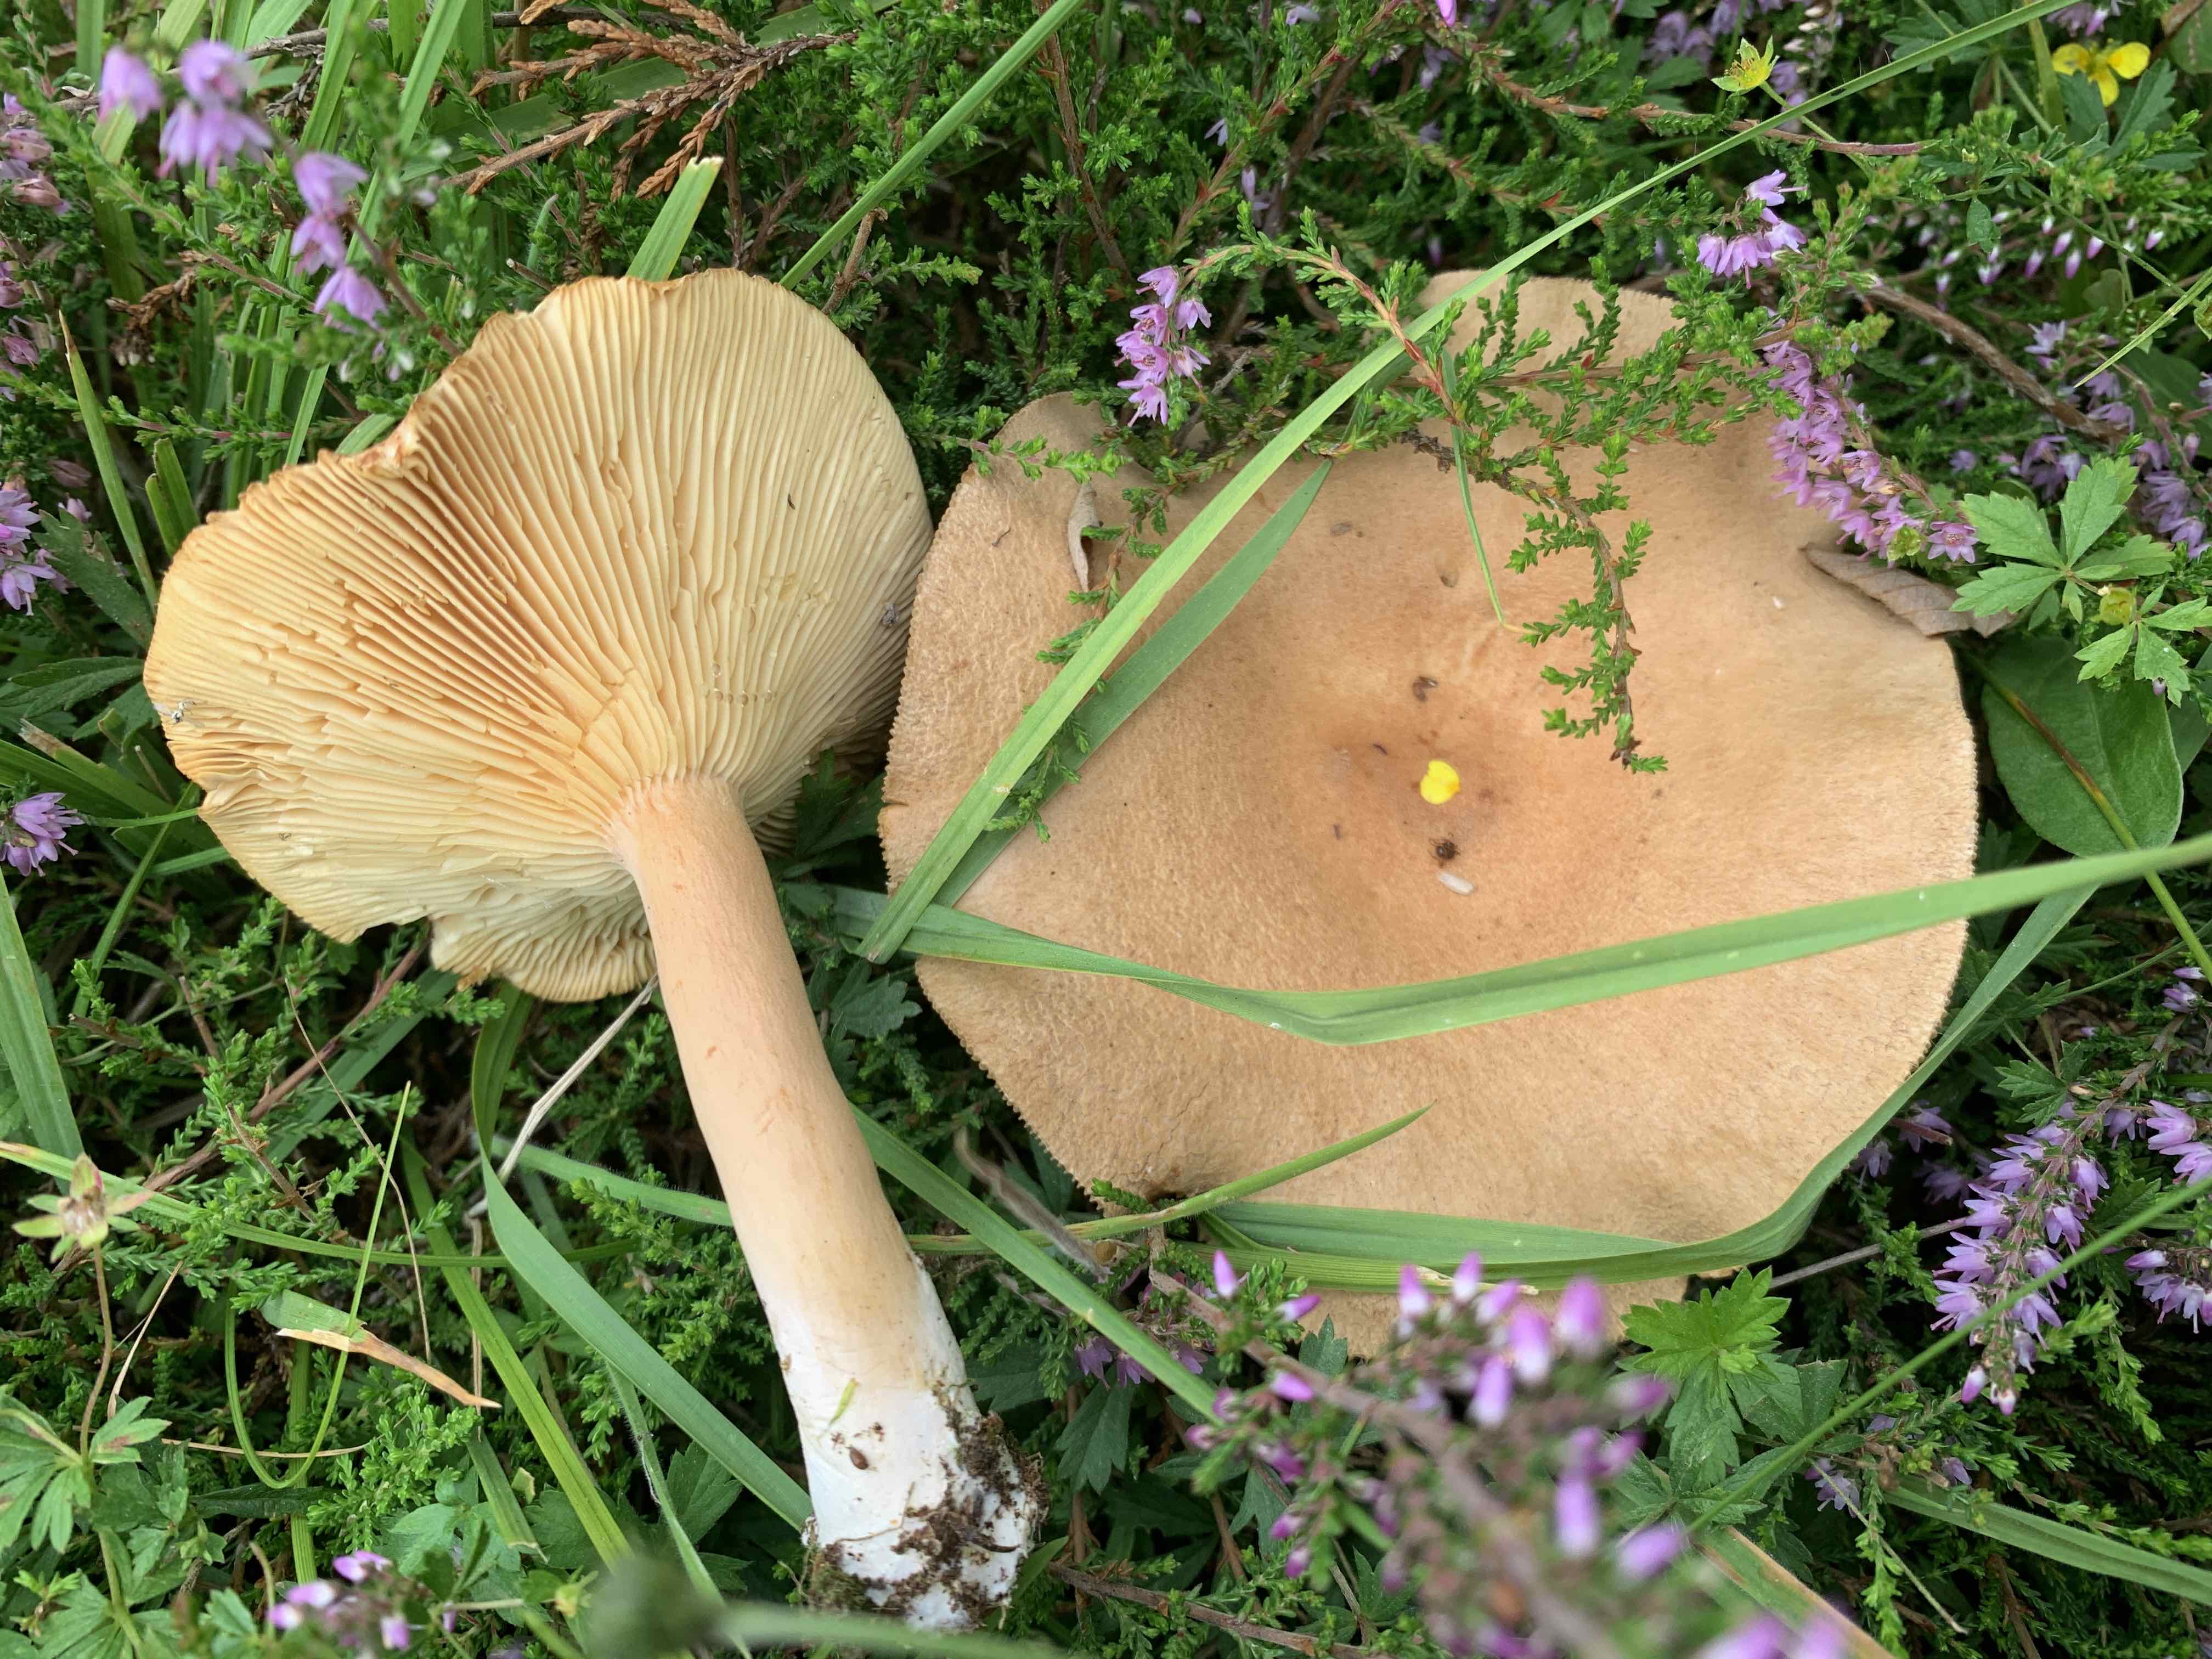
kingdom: Fungi
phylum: Basidiomycota
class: Agaricomycetes
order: Russulales
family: Russulaceae
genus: Lactarius
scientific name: Lactarius helvus
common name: mose-mælkehat
